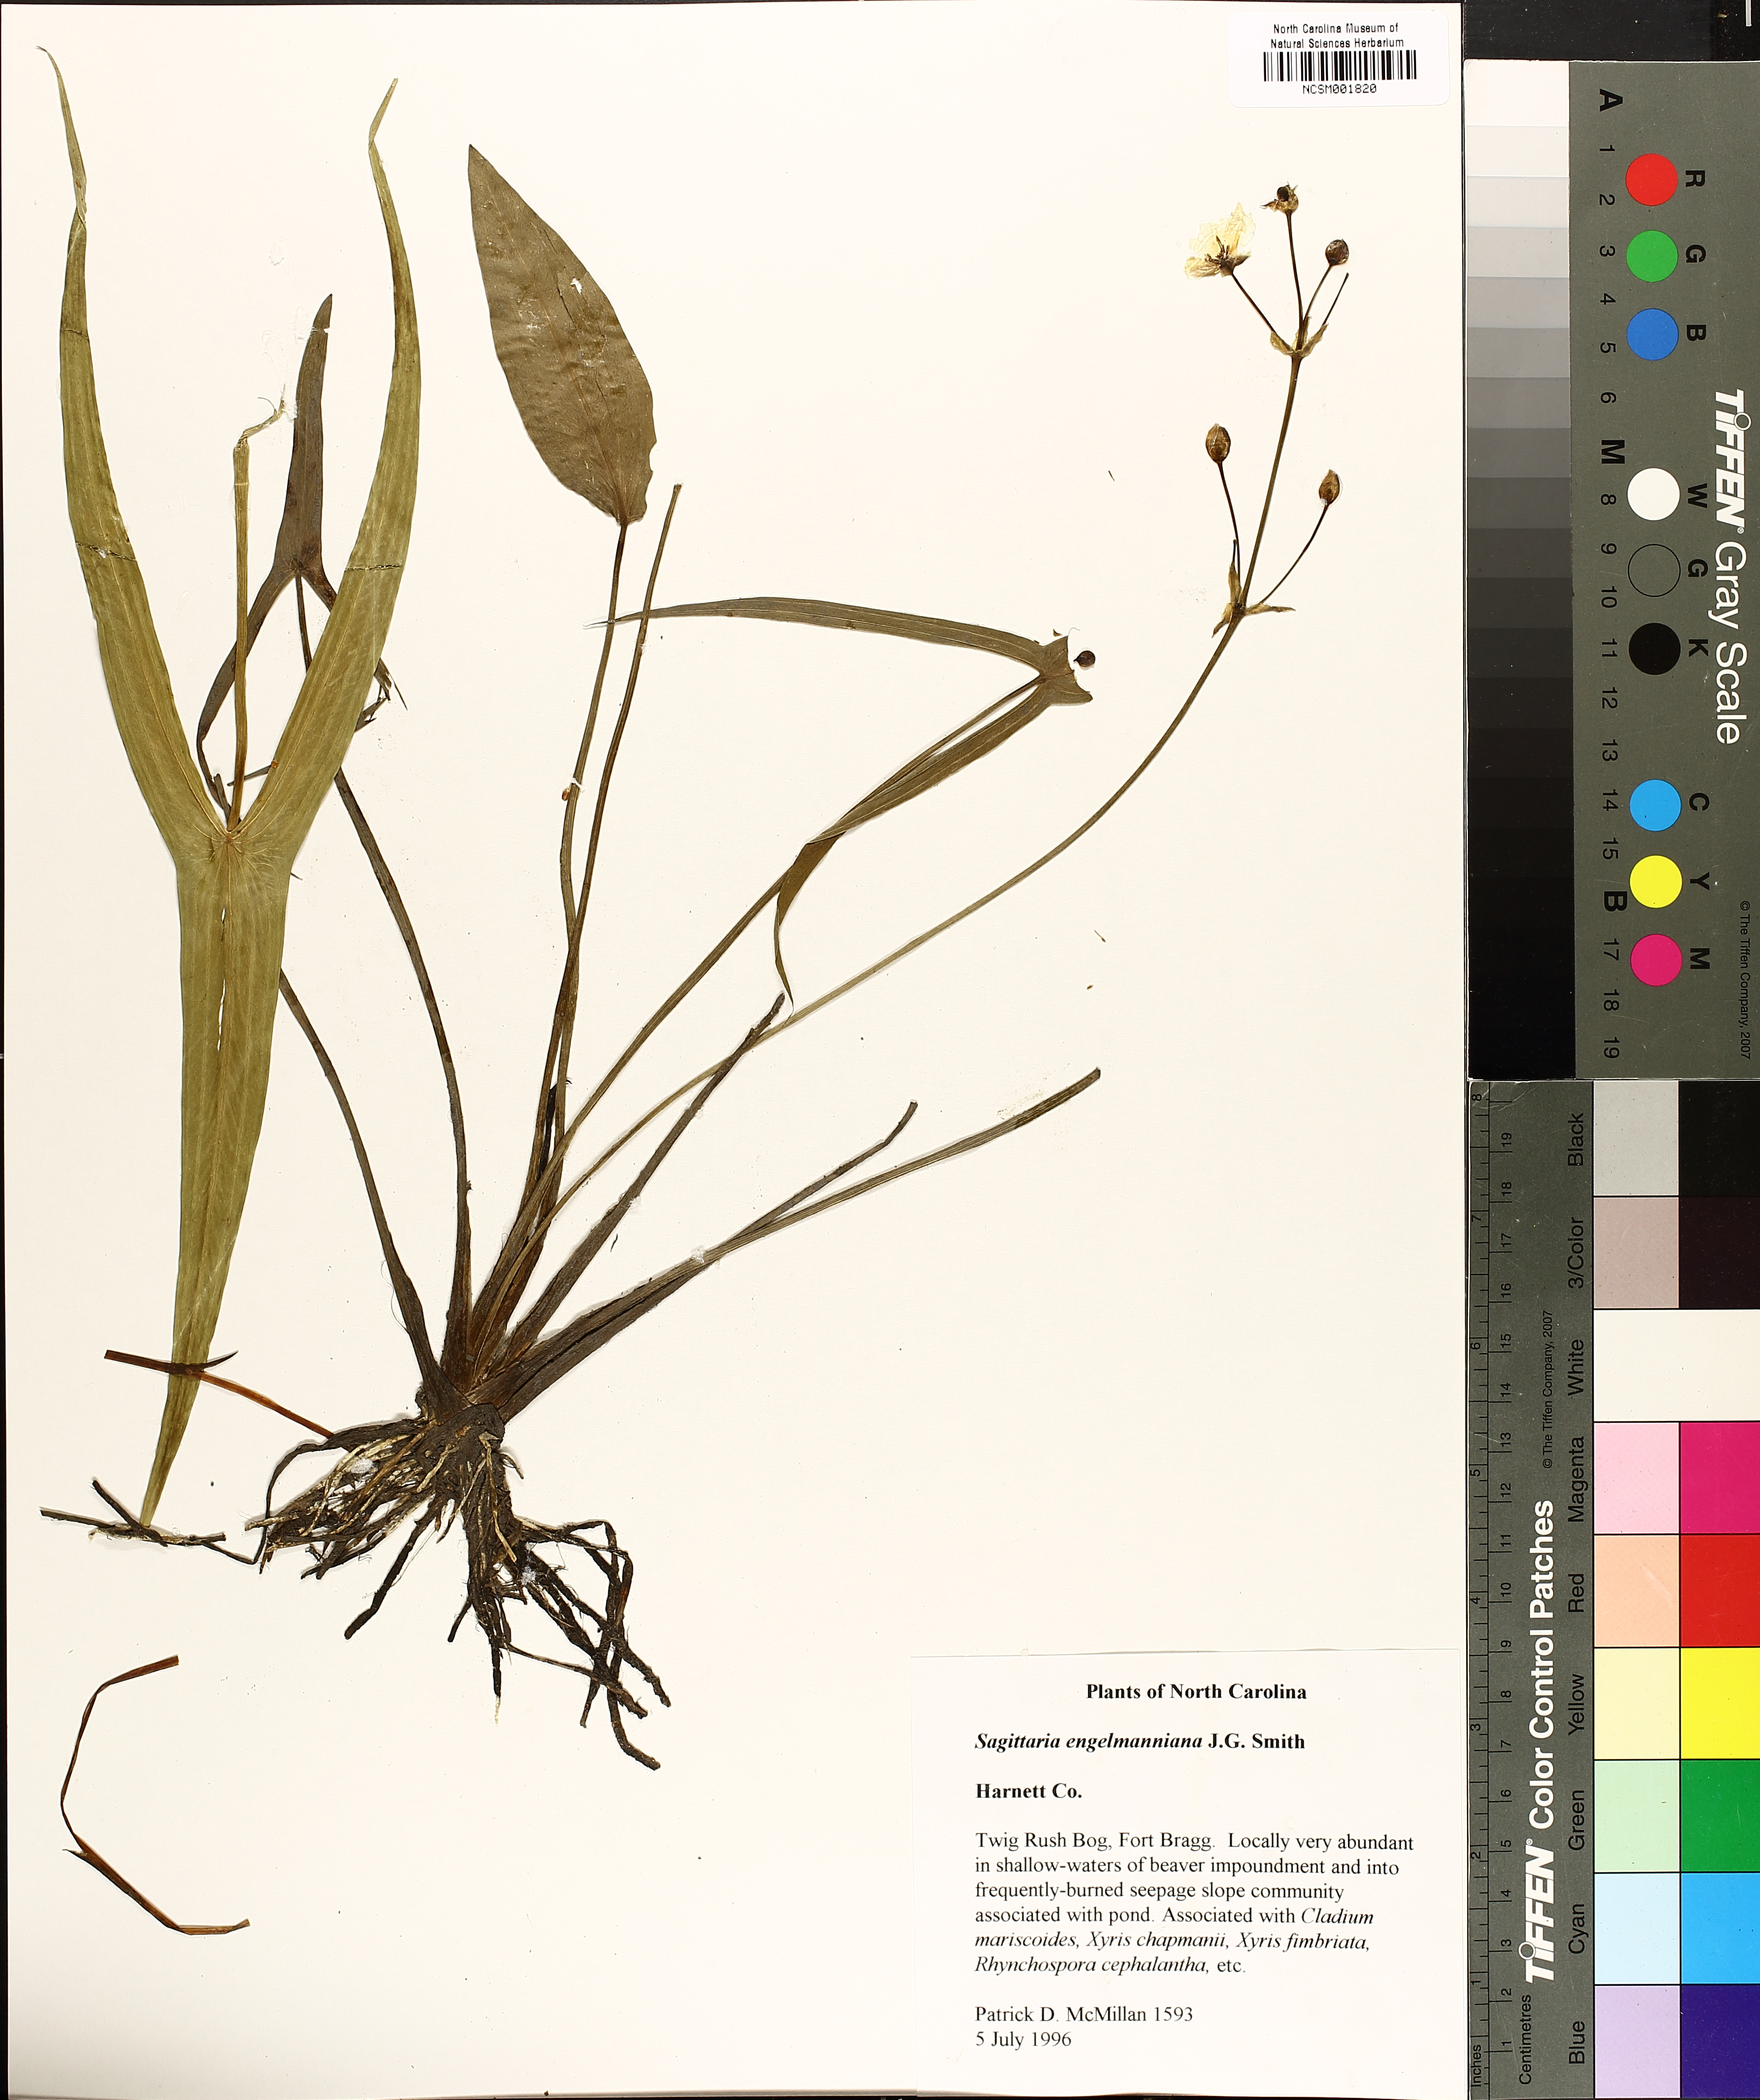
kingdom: Plantae
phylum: Tracheophyta
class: Liliopsida
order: Alismatales
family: Alismataceae
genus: Sagittaria
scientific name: Sagittaria engelmanniana
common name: Acid-water arrowhead
